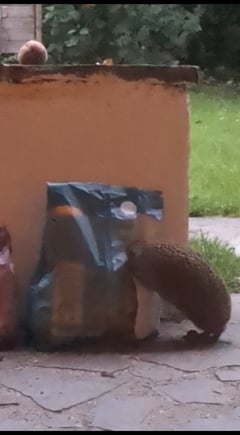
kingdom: Animalia
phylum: Chordata
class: Mammalia
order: Erinaceomorpha
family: Erinaceidae
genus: Erinaceus
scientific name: Erinaceus europaeus
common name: West european hedgehog
